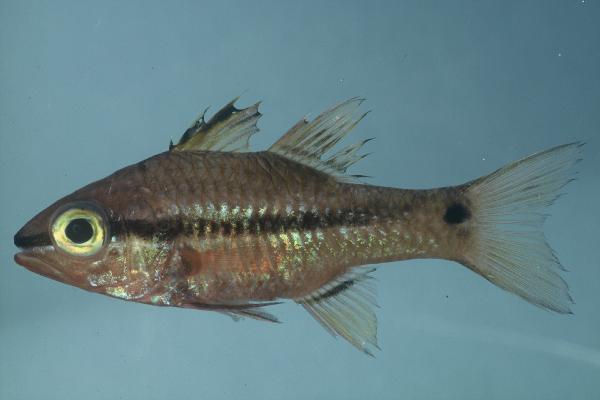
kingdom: Animalia
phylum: Chordata
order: Perciformes
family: Apogonidae
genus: Pristiapogon
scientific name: Pristiapogon kallopterus
